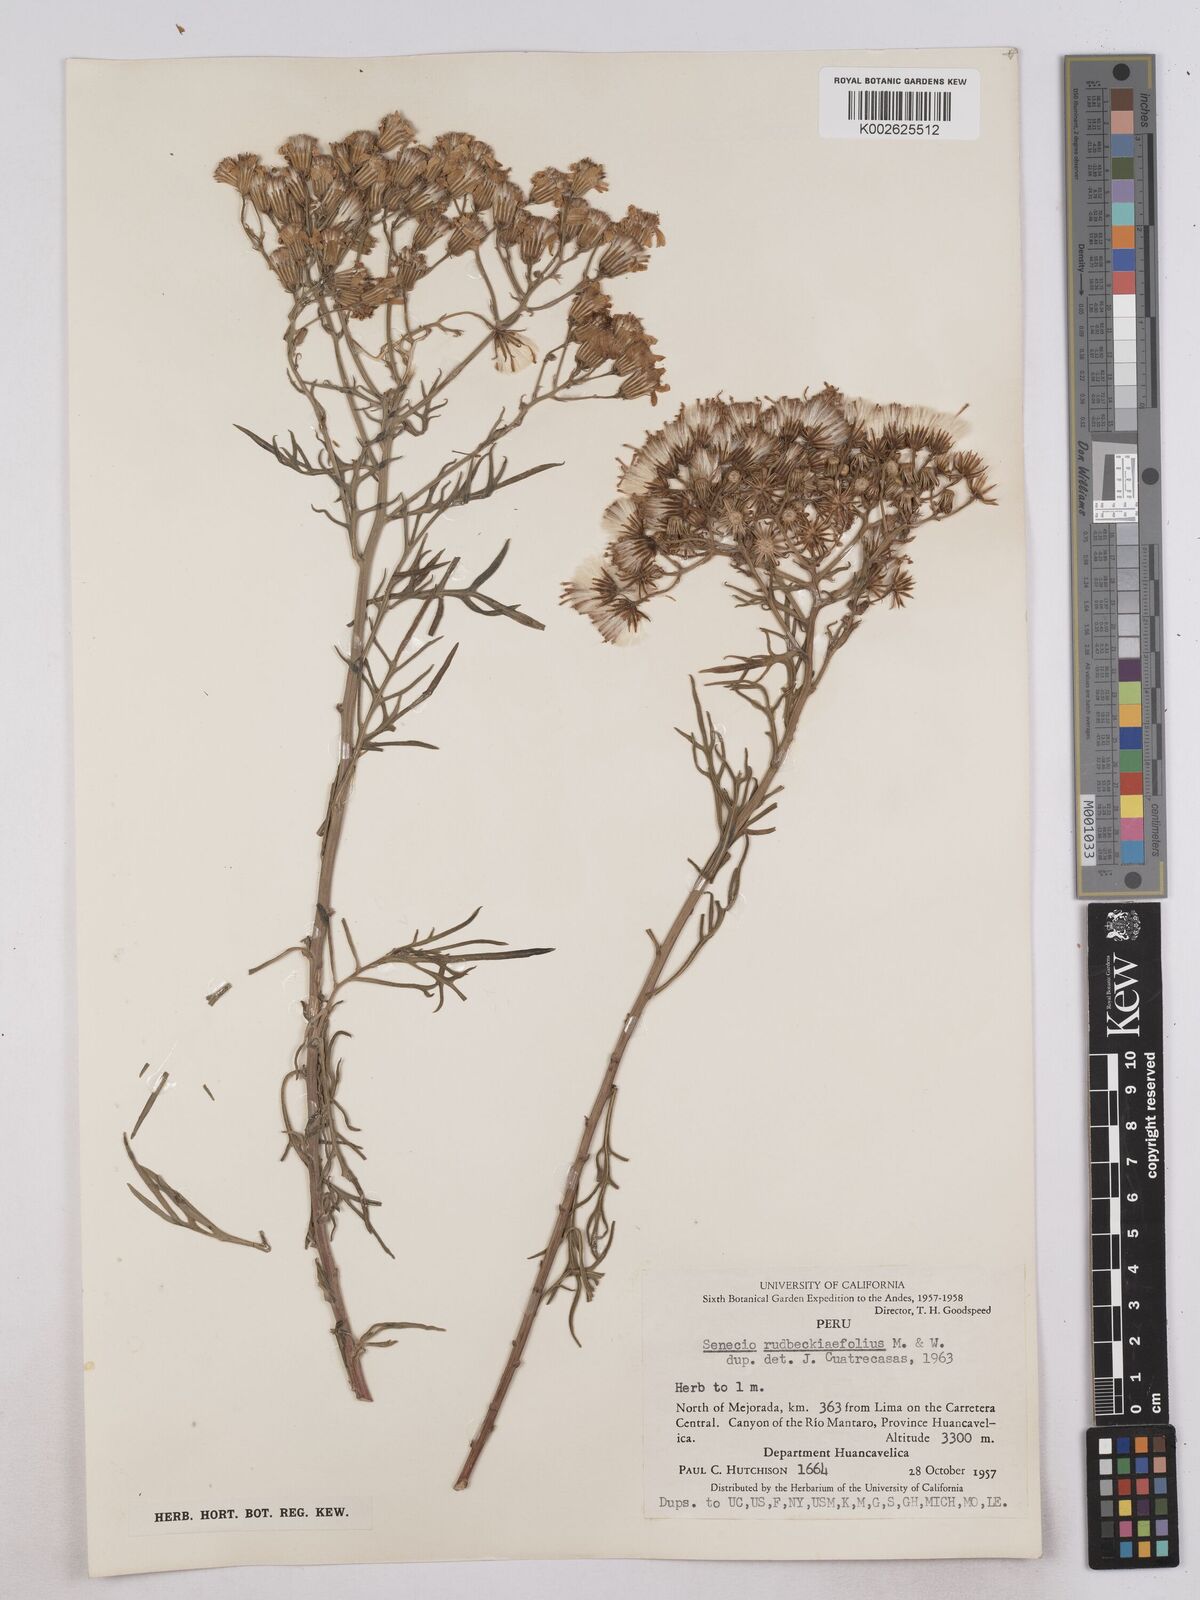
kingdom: Plantae
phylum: Tracheophyta
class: Magnoliopsida
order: Asterales
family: Asteraceae
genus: Senecio
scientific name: Senecio rudbeckiifolius
